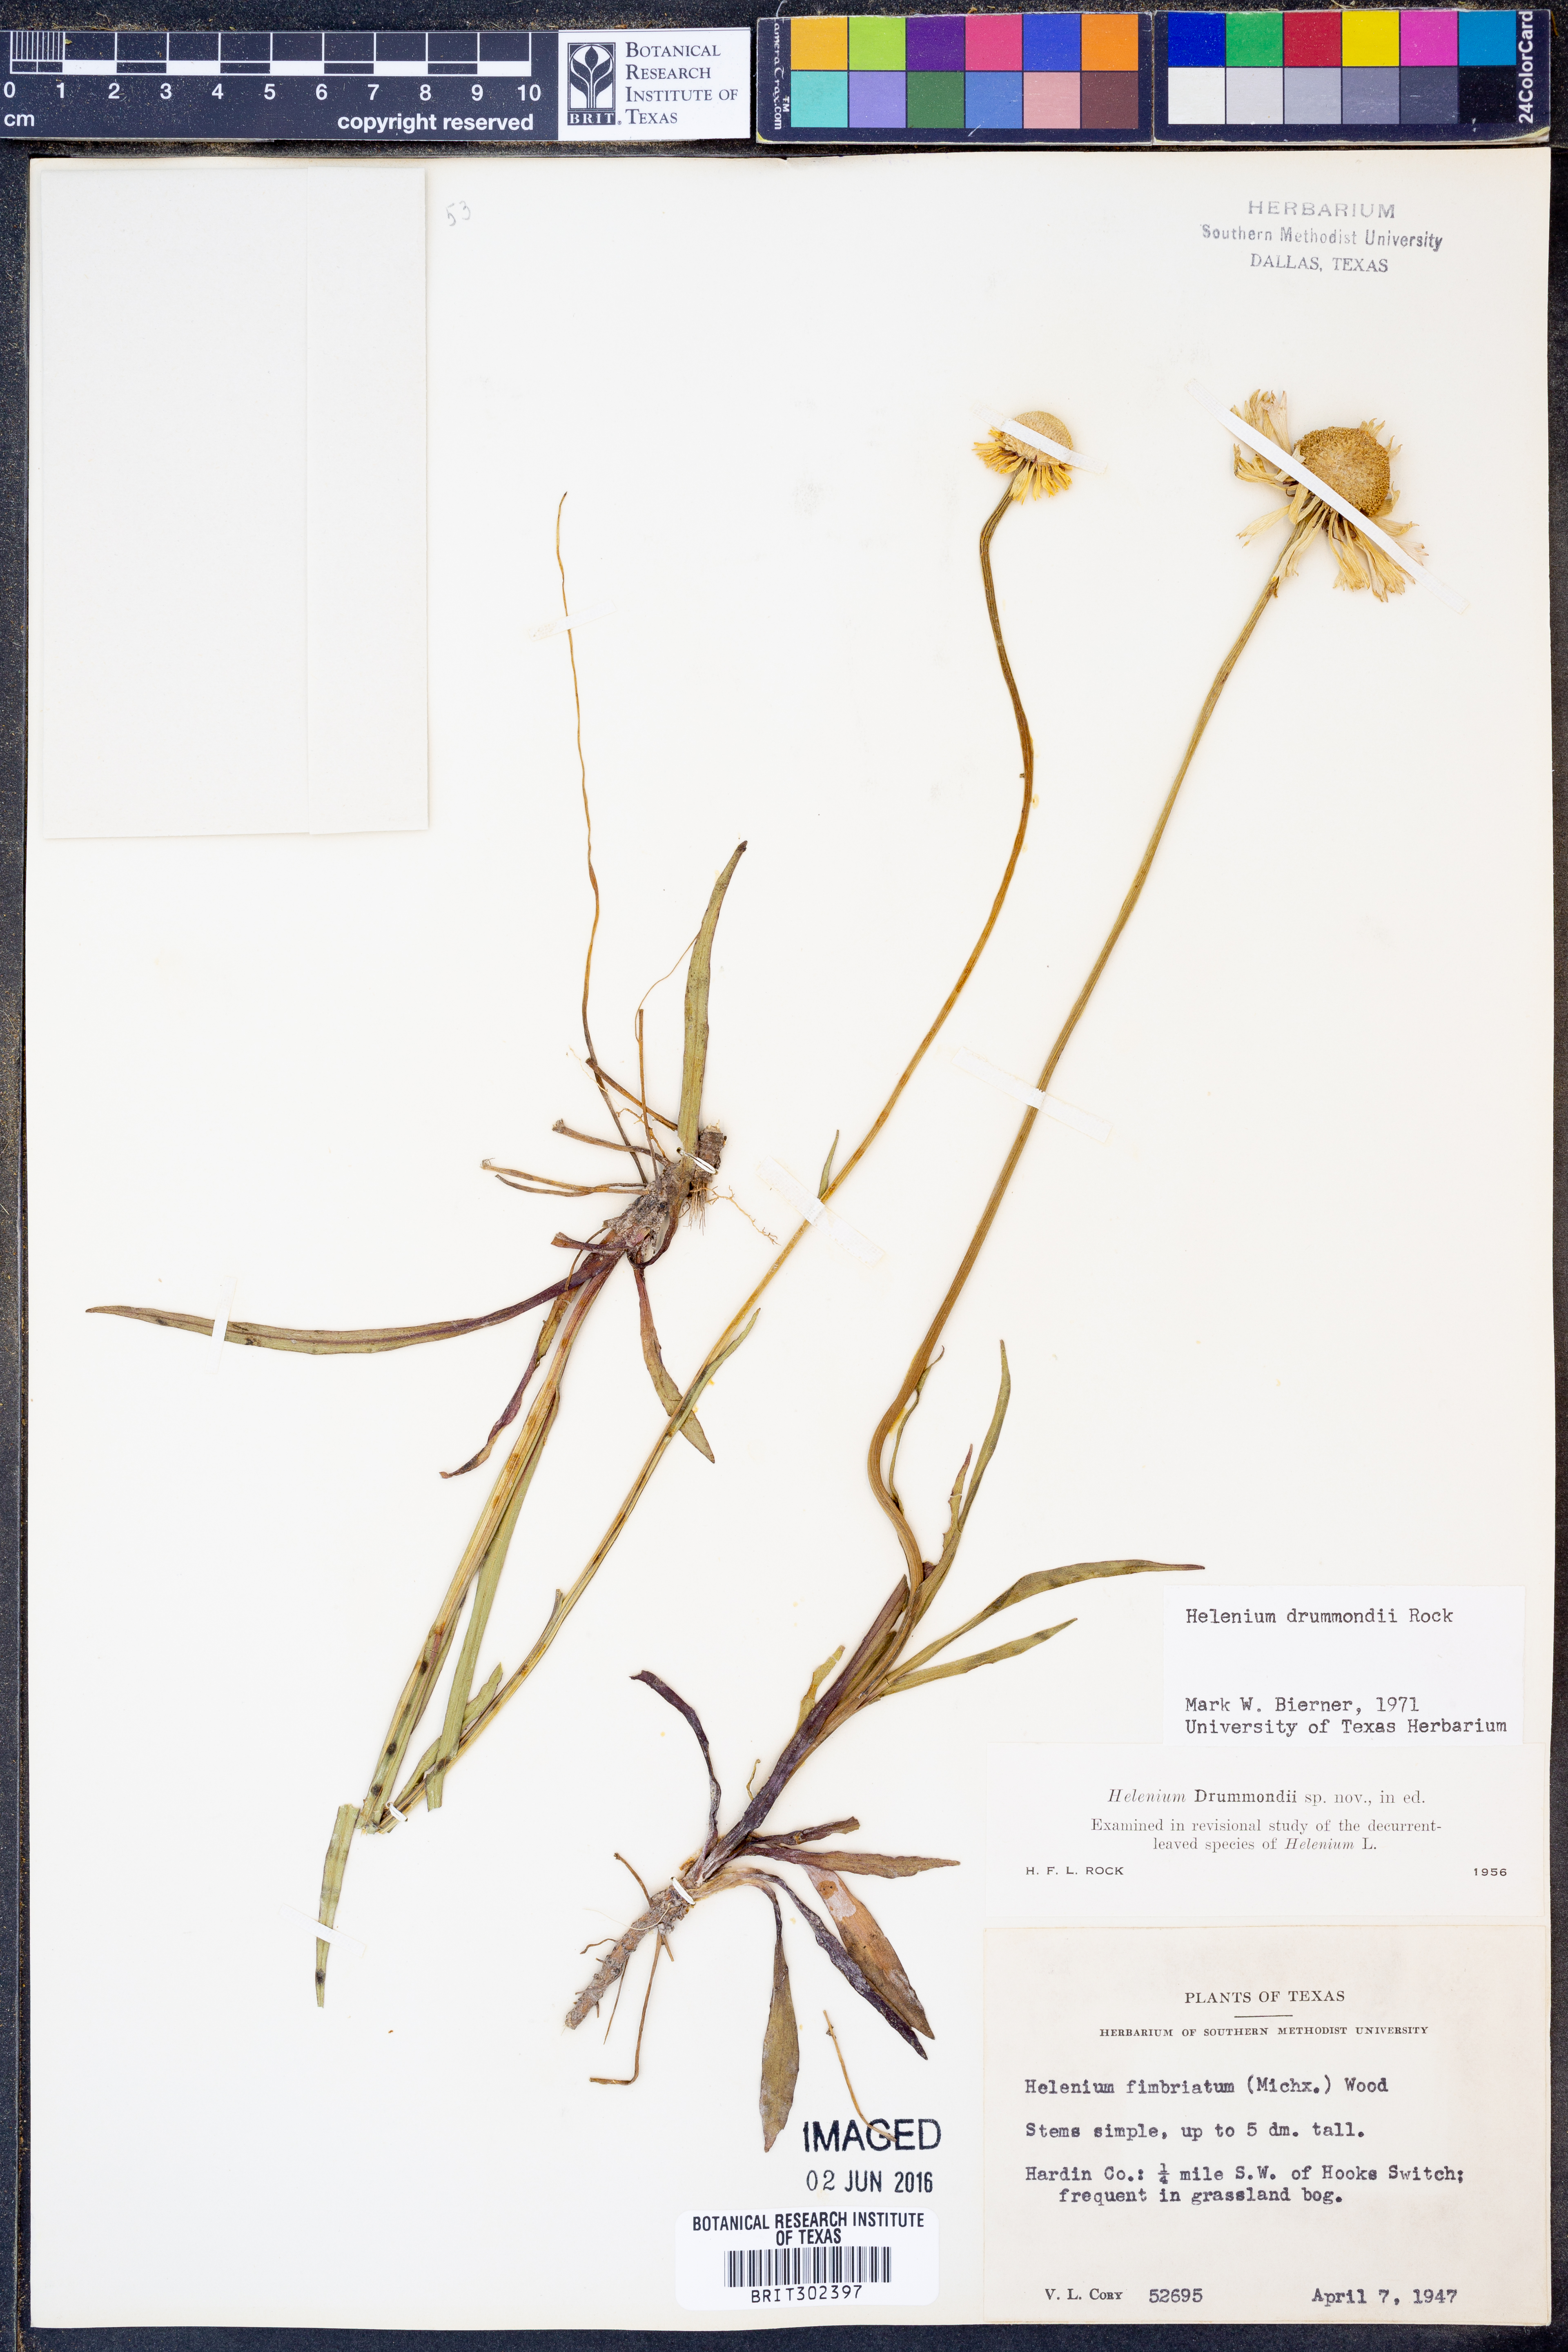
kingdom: Plantae
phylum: Tracheophyta
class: Magnoliopsida
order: Asterales
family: Asteraceae
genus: Helenium
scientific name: Helenium drummondii
